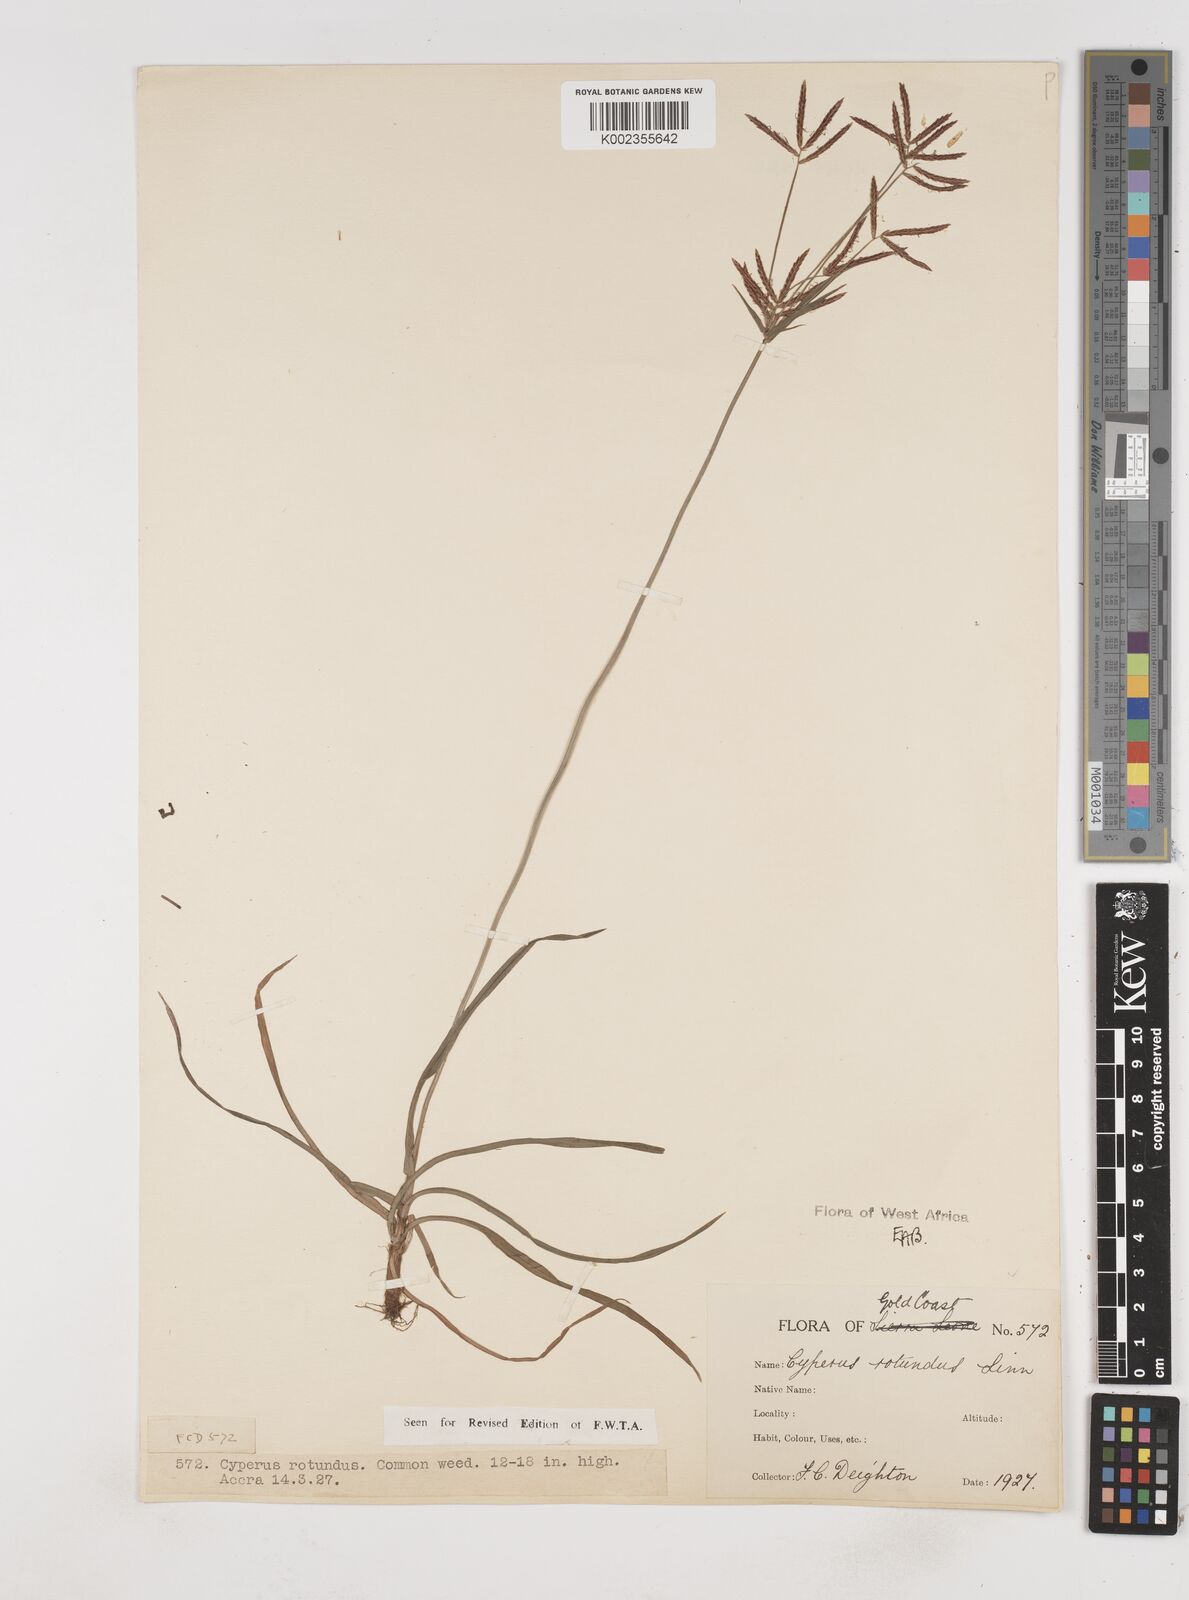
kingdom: Plantae
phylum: Tracheophyta
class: Liliopsida
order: Poales
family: Cyperaceae
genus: Cyperus
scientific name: Cyperus rotundus
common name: Nutgrass
